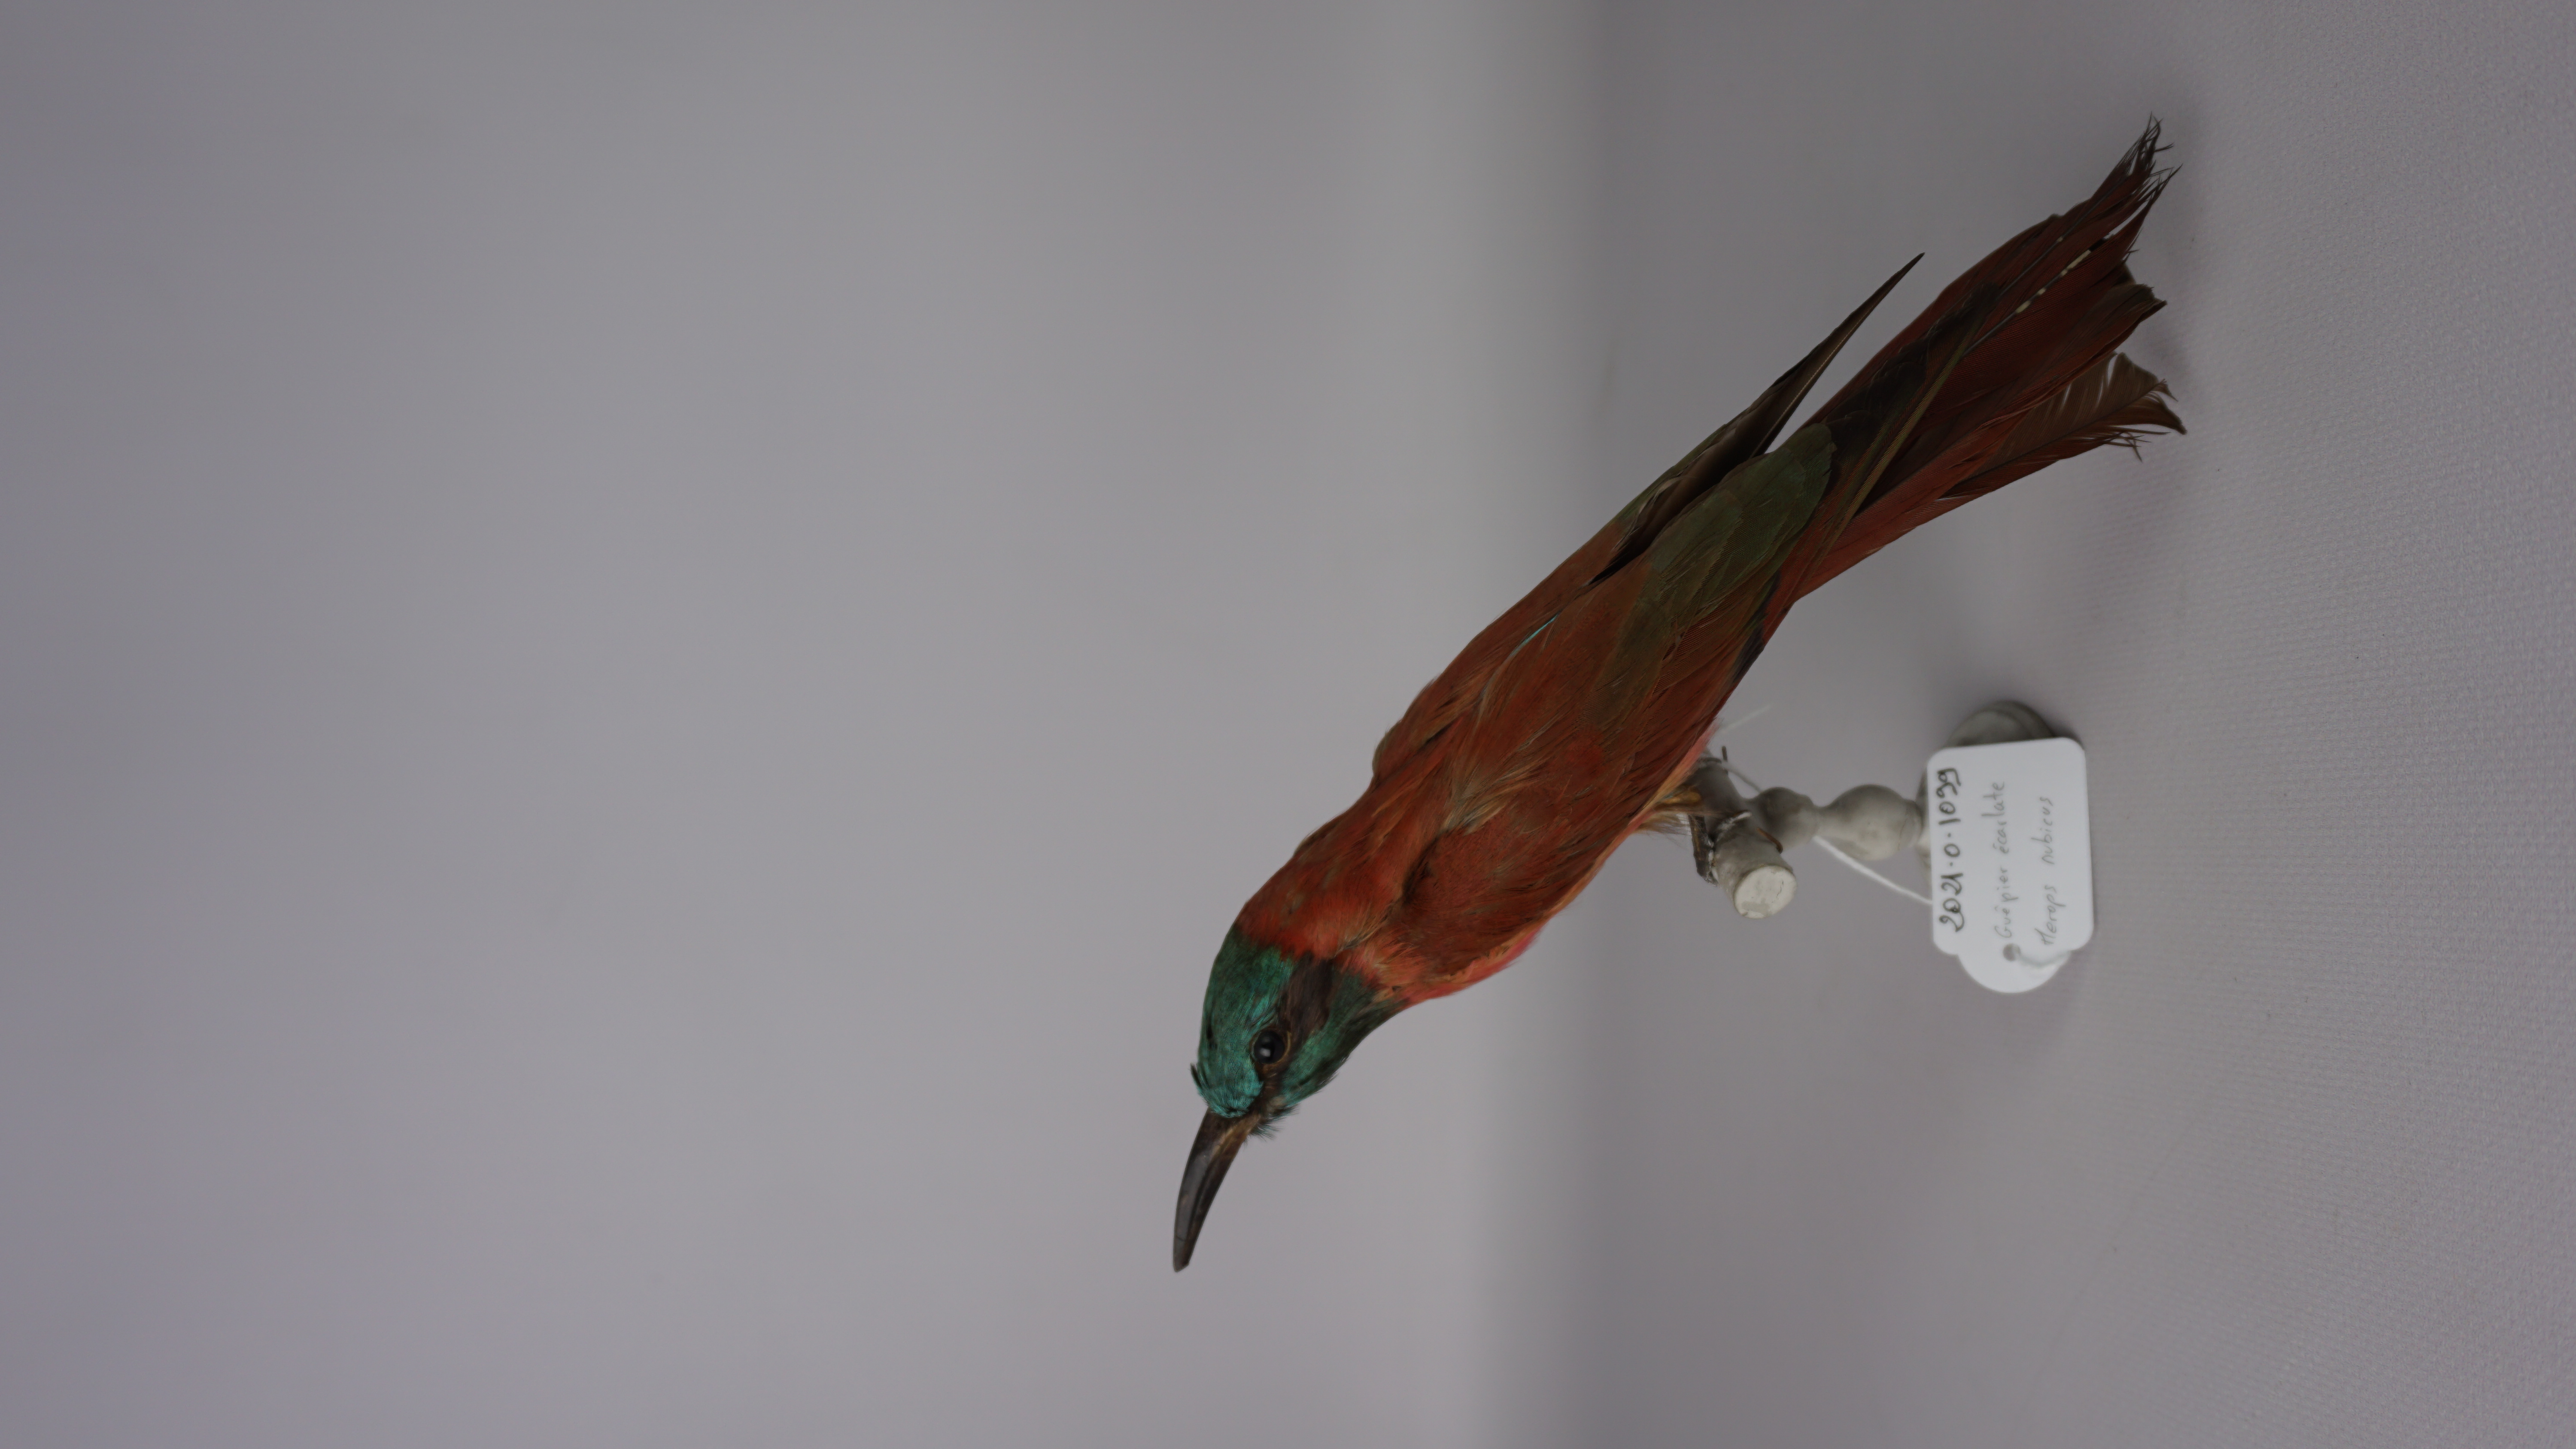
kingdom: Animalia
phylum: Chordata
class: Aves
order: Coraciiformes
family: Meropidae
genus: Merops
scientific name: Merops nubicus
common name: Northern carmine bee-eater
